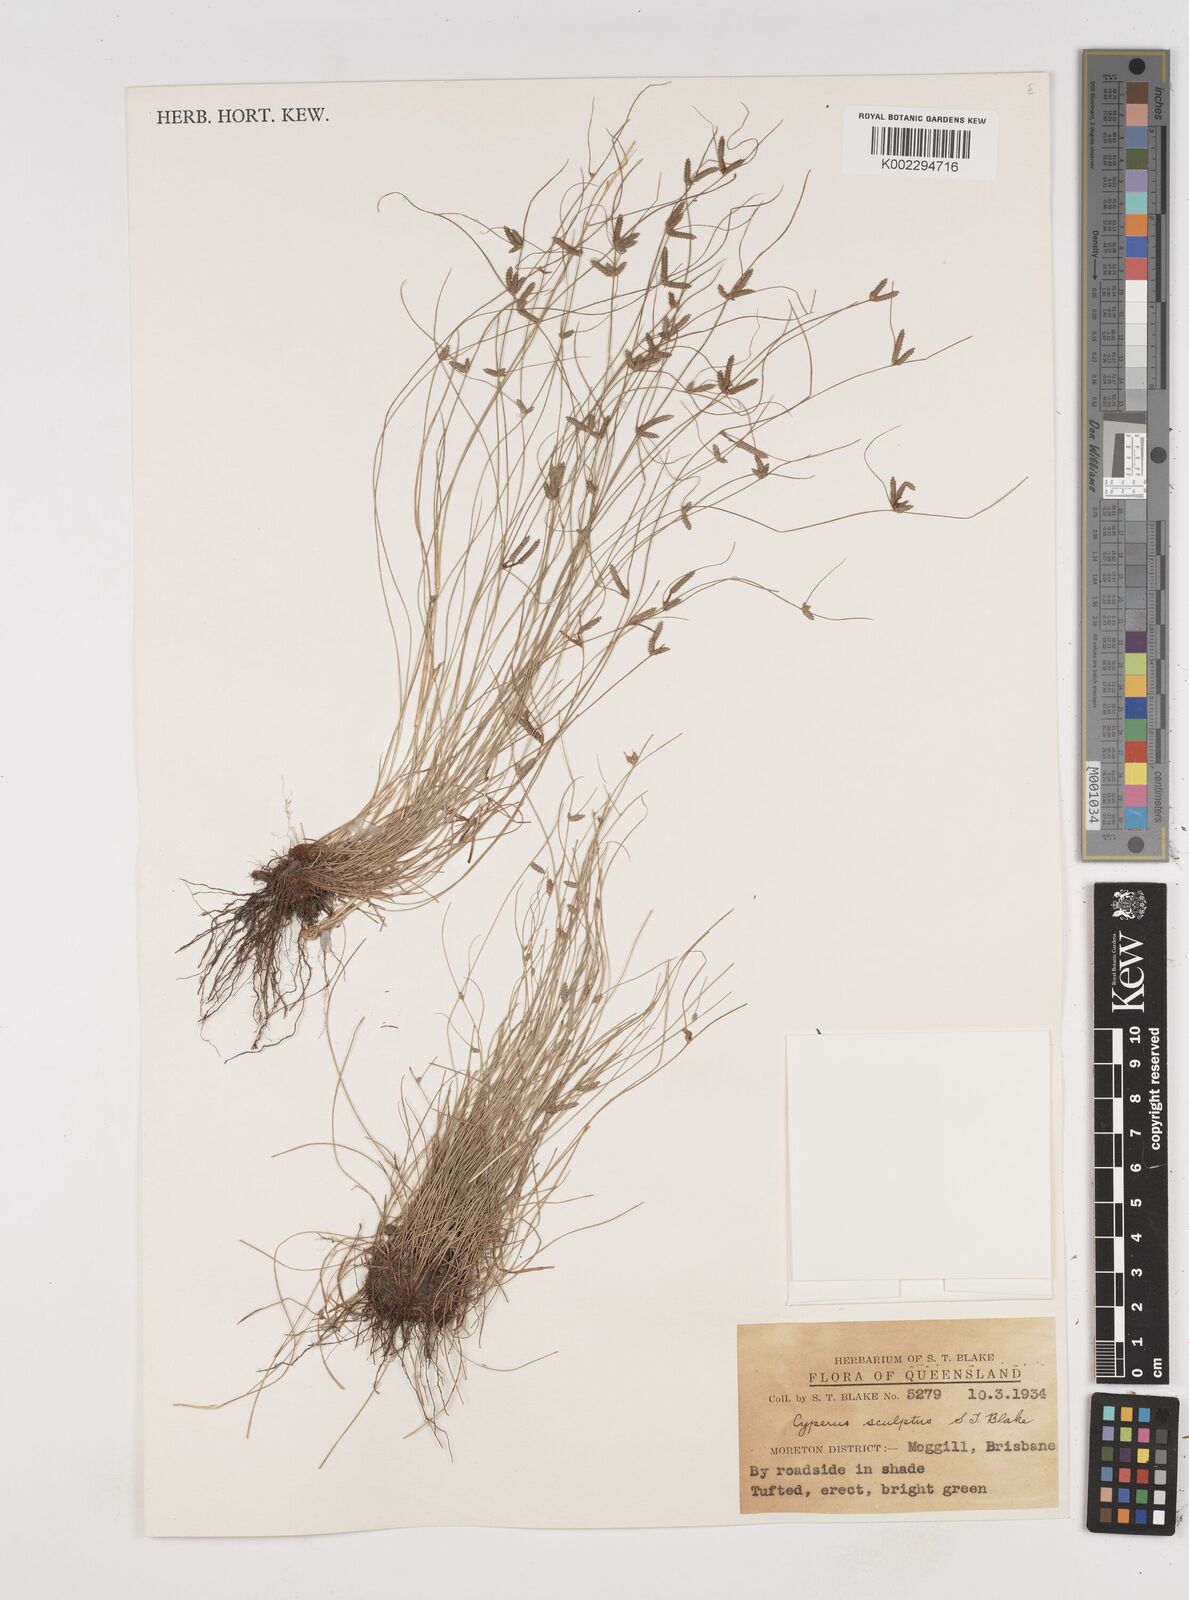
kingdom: Plantae
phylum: Tracheophyta
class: Liliopsida
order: Poales
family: Cyperaceae
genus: Cyperus
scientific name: Cyperus sculptus
